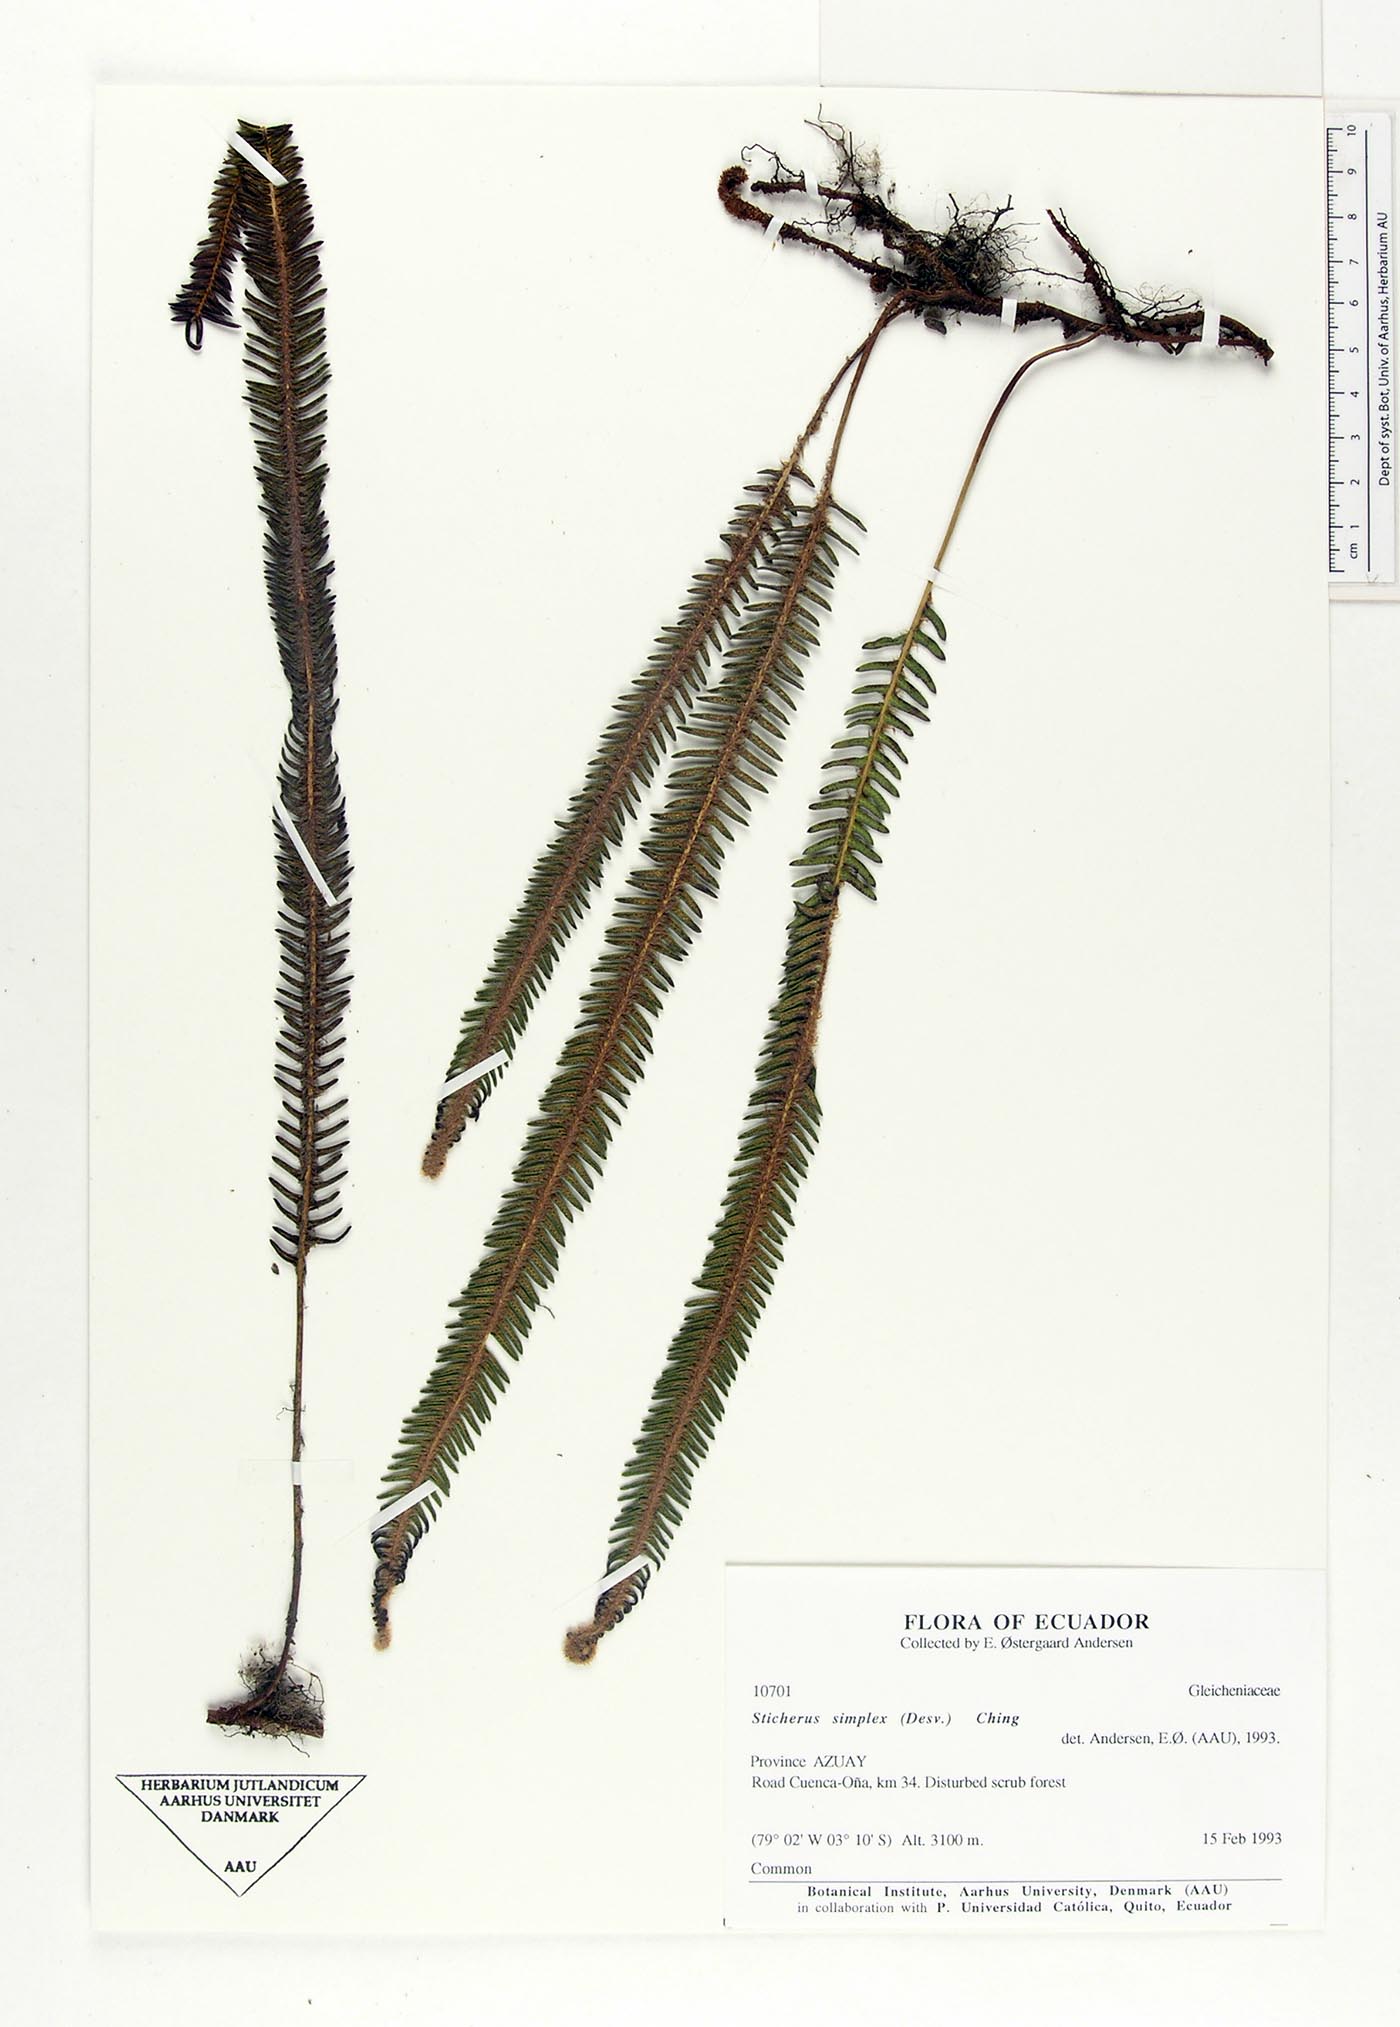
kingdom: Plantae
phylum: Tracheophyta
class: Polypodiopsida
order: Gleicheniales
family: Gleicheniaceae
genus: Sticherus
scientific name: Sticherus simplex
